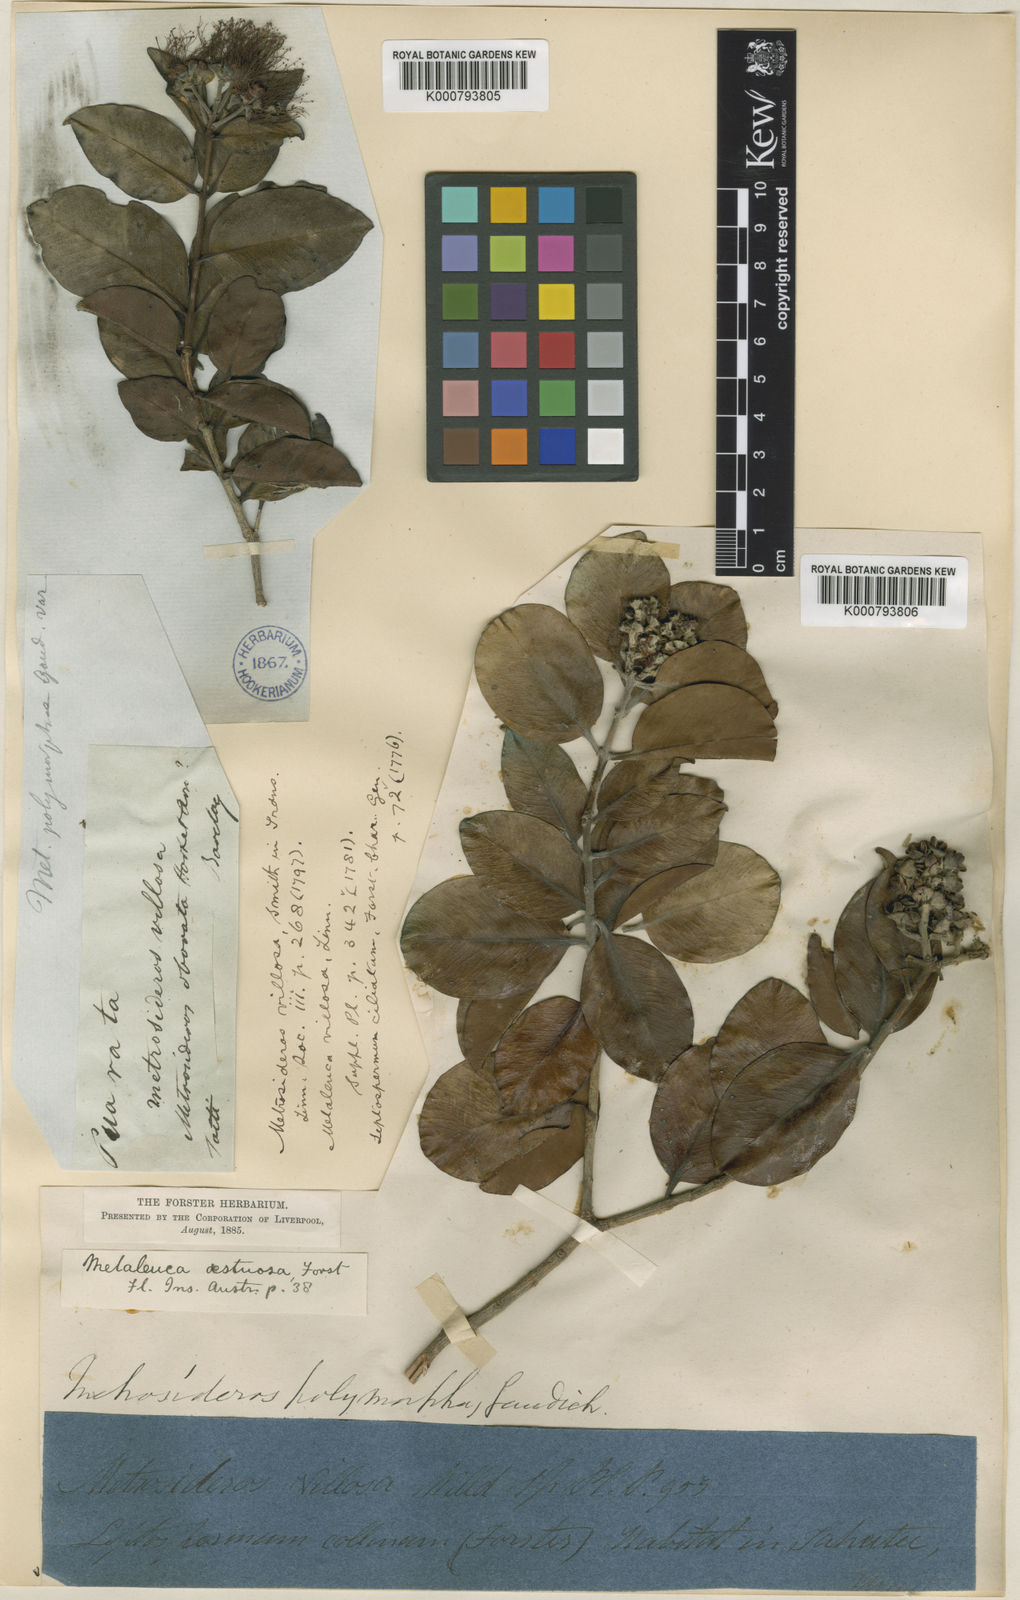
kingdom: Plantae
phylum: Tracheophyta
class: Magnoliopsida
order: Myrtales
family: Myrtaceae
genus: Metrosideros
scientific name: Metrosideros collina
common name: Vunga
